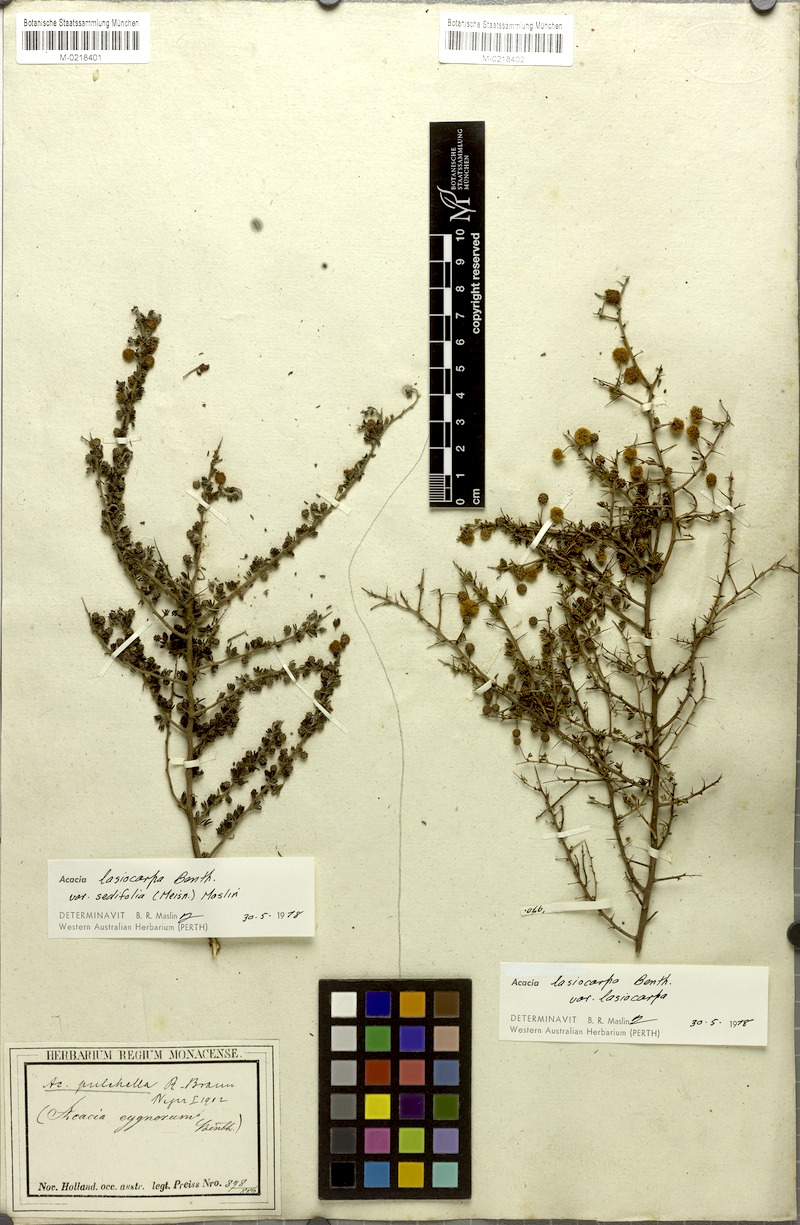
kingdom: Plantae
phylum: Tracheophyta
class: Magnoliopsida
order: Fabales
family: Fabaceae
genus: Acacia
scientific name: Acacia lasiocarpa
